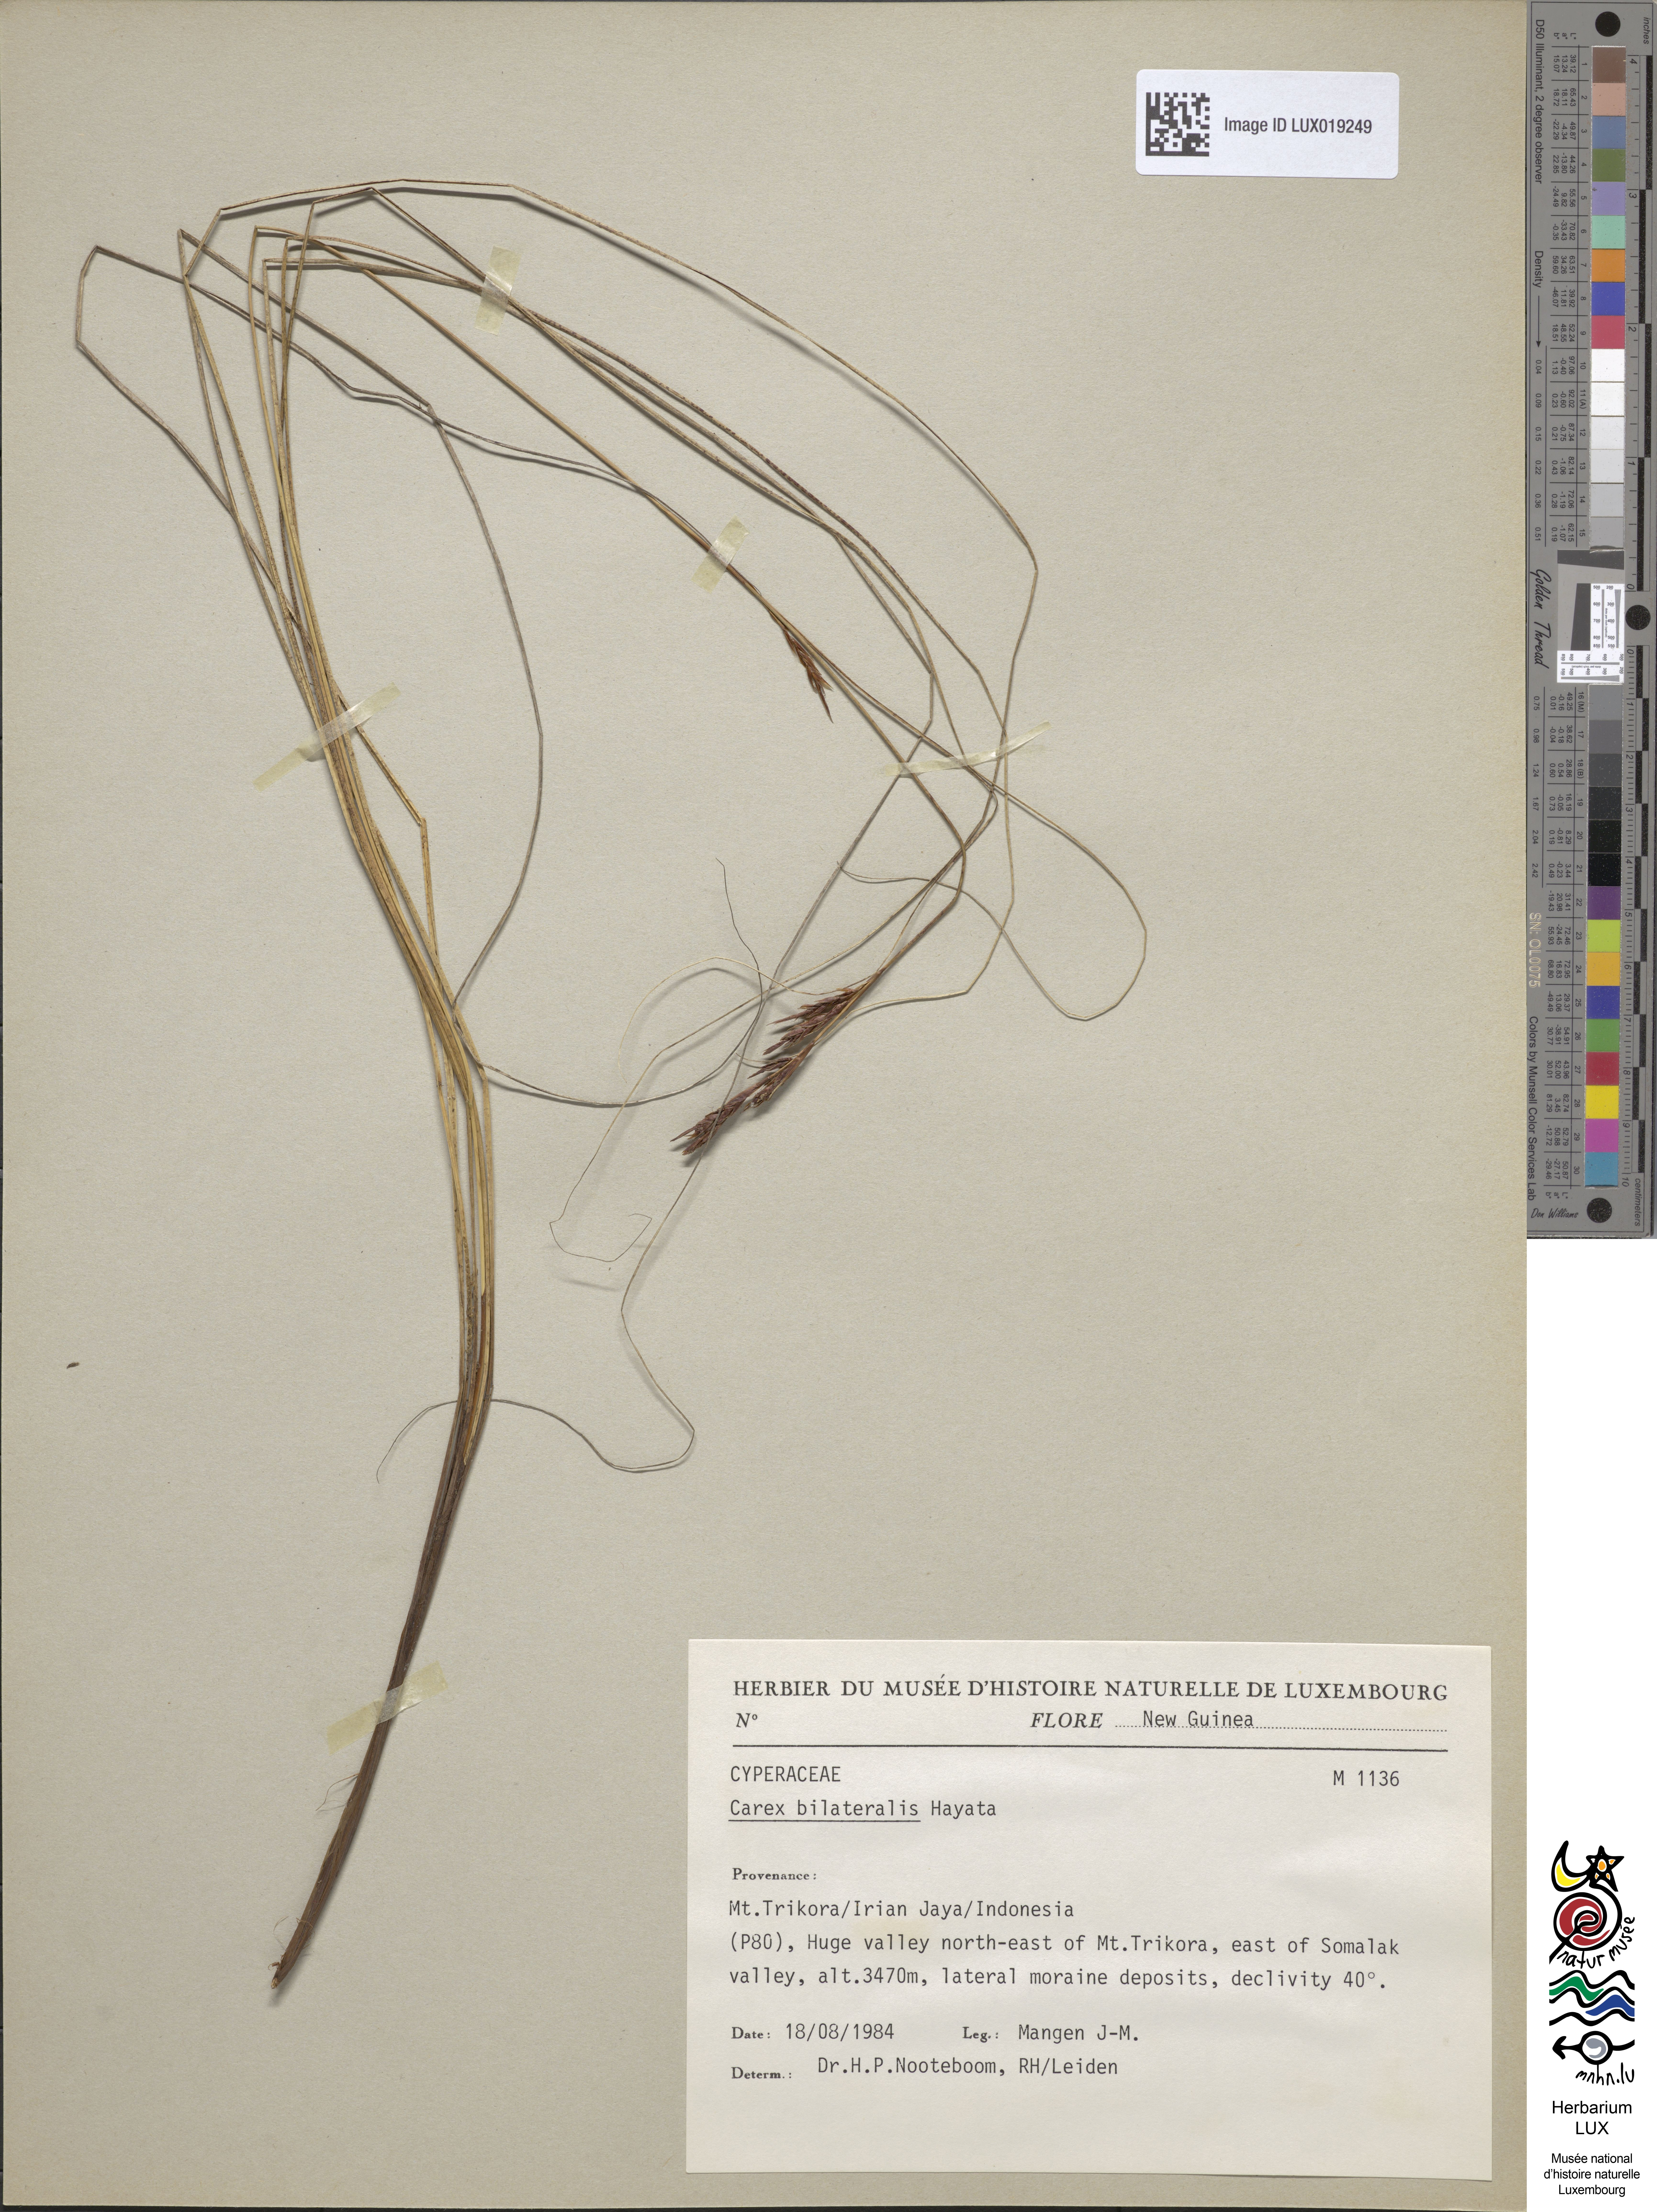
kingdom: Plantae
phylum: Tracheophyta
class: Liliopsida
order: Poales
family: Cyperaceae
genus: Carex
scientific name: Carex bilateralis
